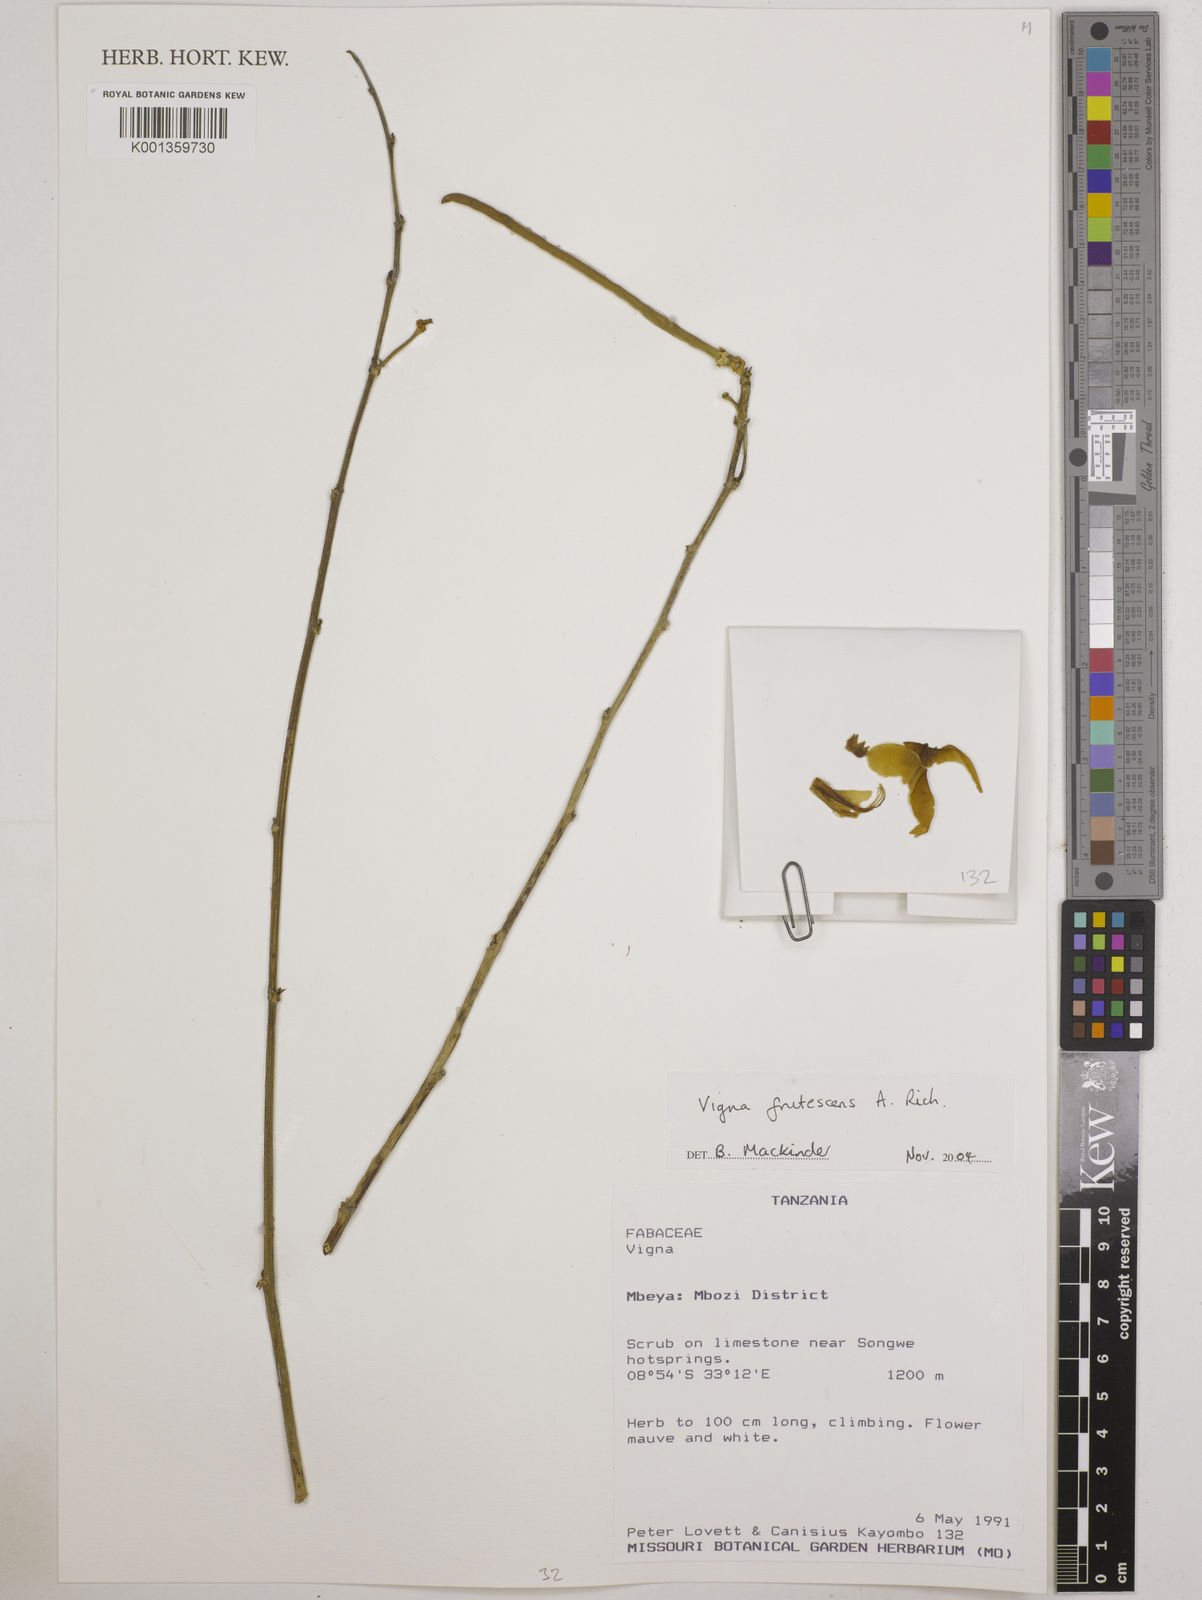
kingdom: Plantae
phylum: Tracheophyta
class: Magnoliopsida
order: Fabales
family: Fabaceae
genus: Vigna
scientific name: Vigna frutescens
